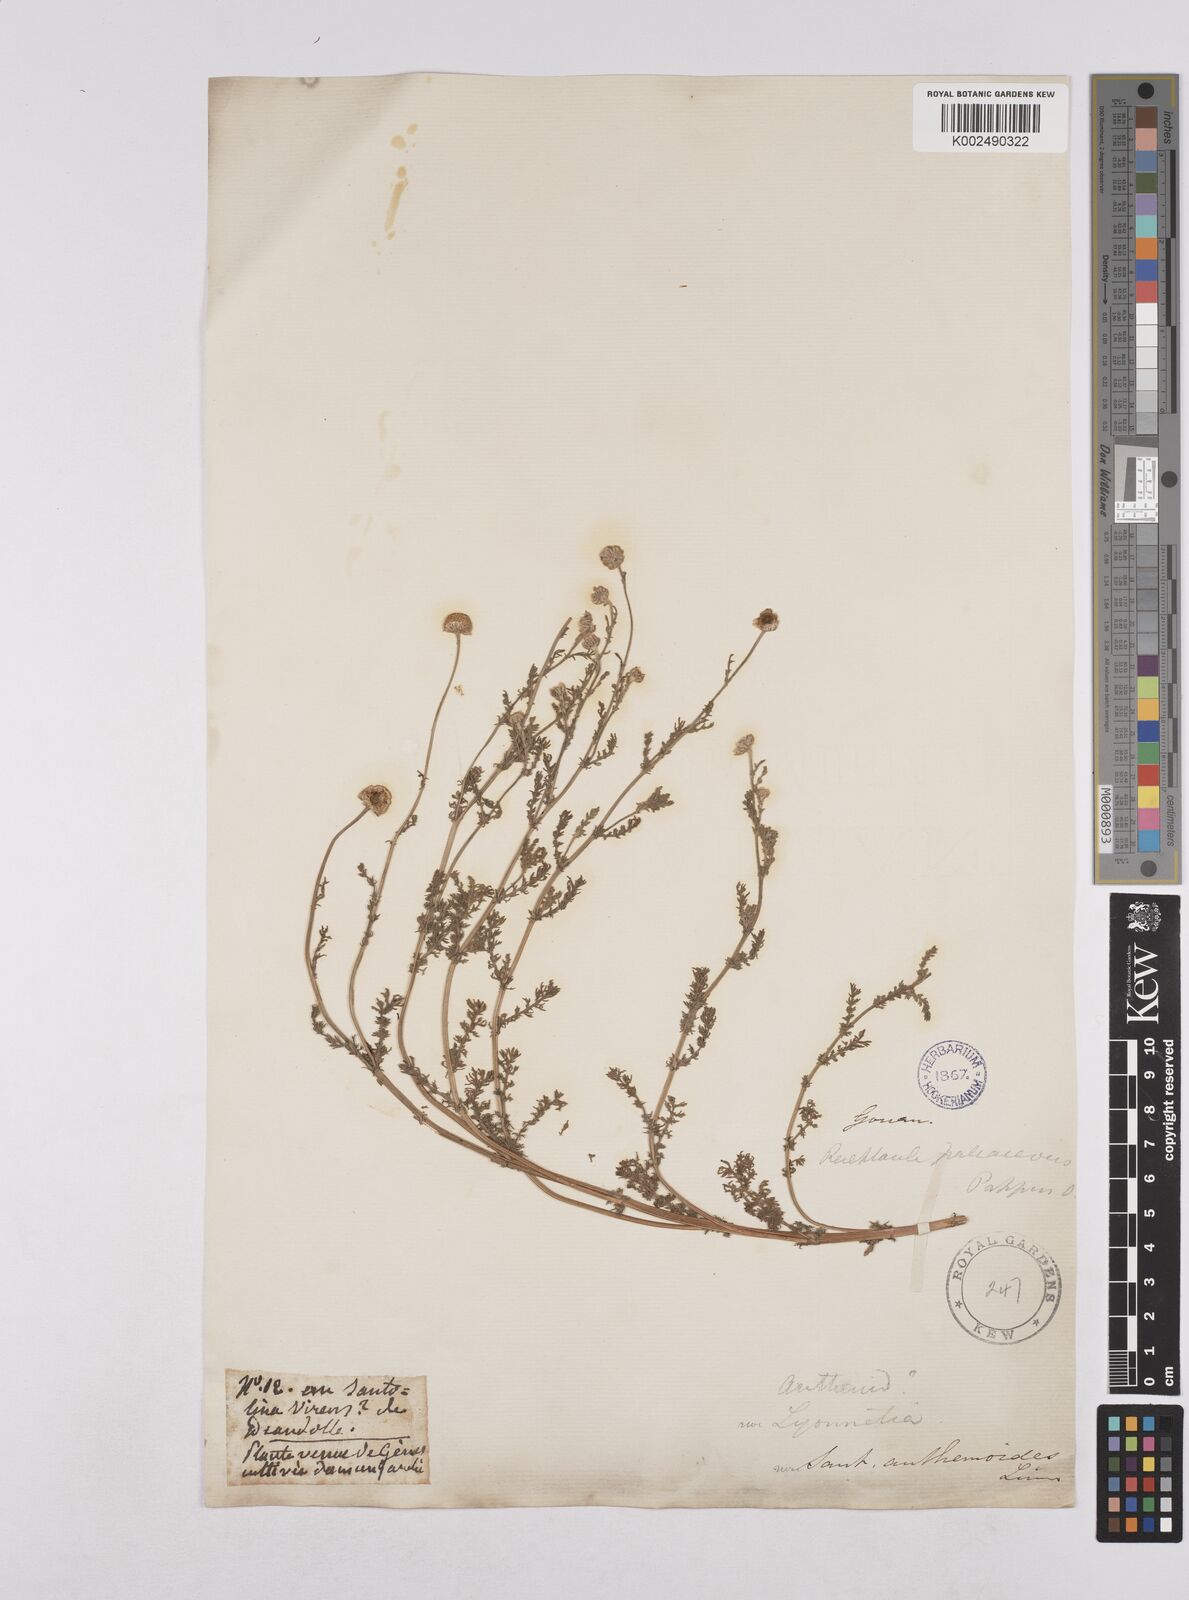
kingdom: Plantae
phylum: Tracheophyta
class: Magnoliopsida
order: Asterales
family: Asteraceae
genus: Matricaria
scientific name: Matricaria chamomilla
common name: Scented mayweed
